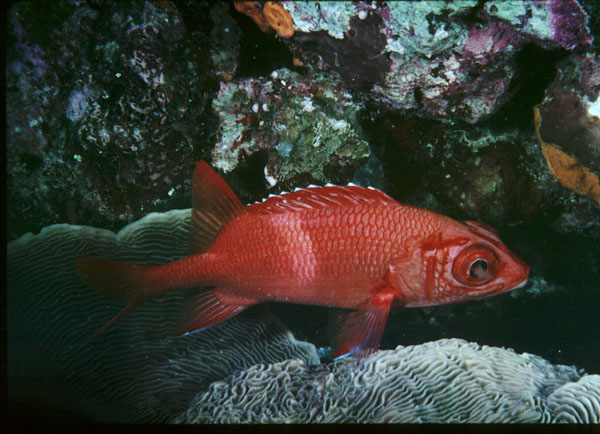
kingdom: Animalia
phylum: Chordata
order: Beryciformes
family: Holocentridae
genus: Sargocentron
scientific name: Sargocentron tiere
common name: Blue lined squirrelfish
